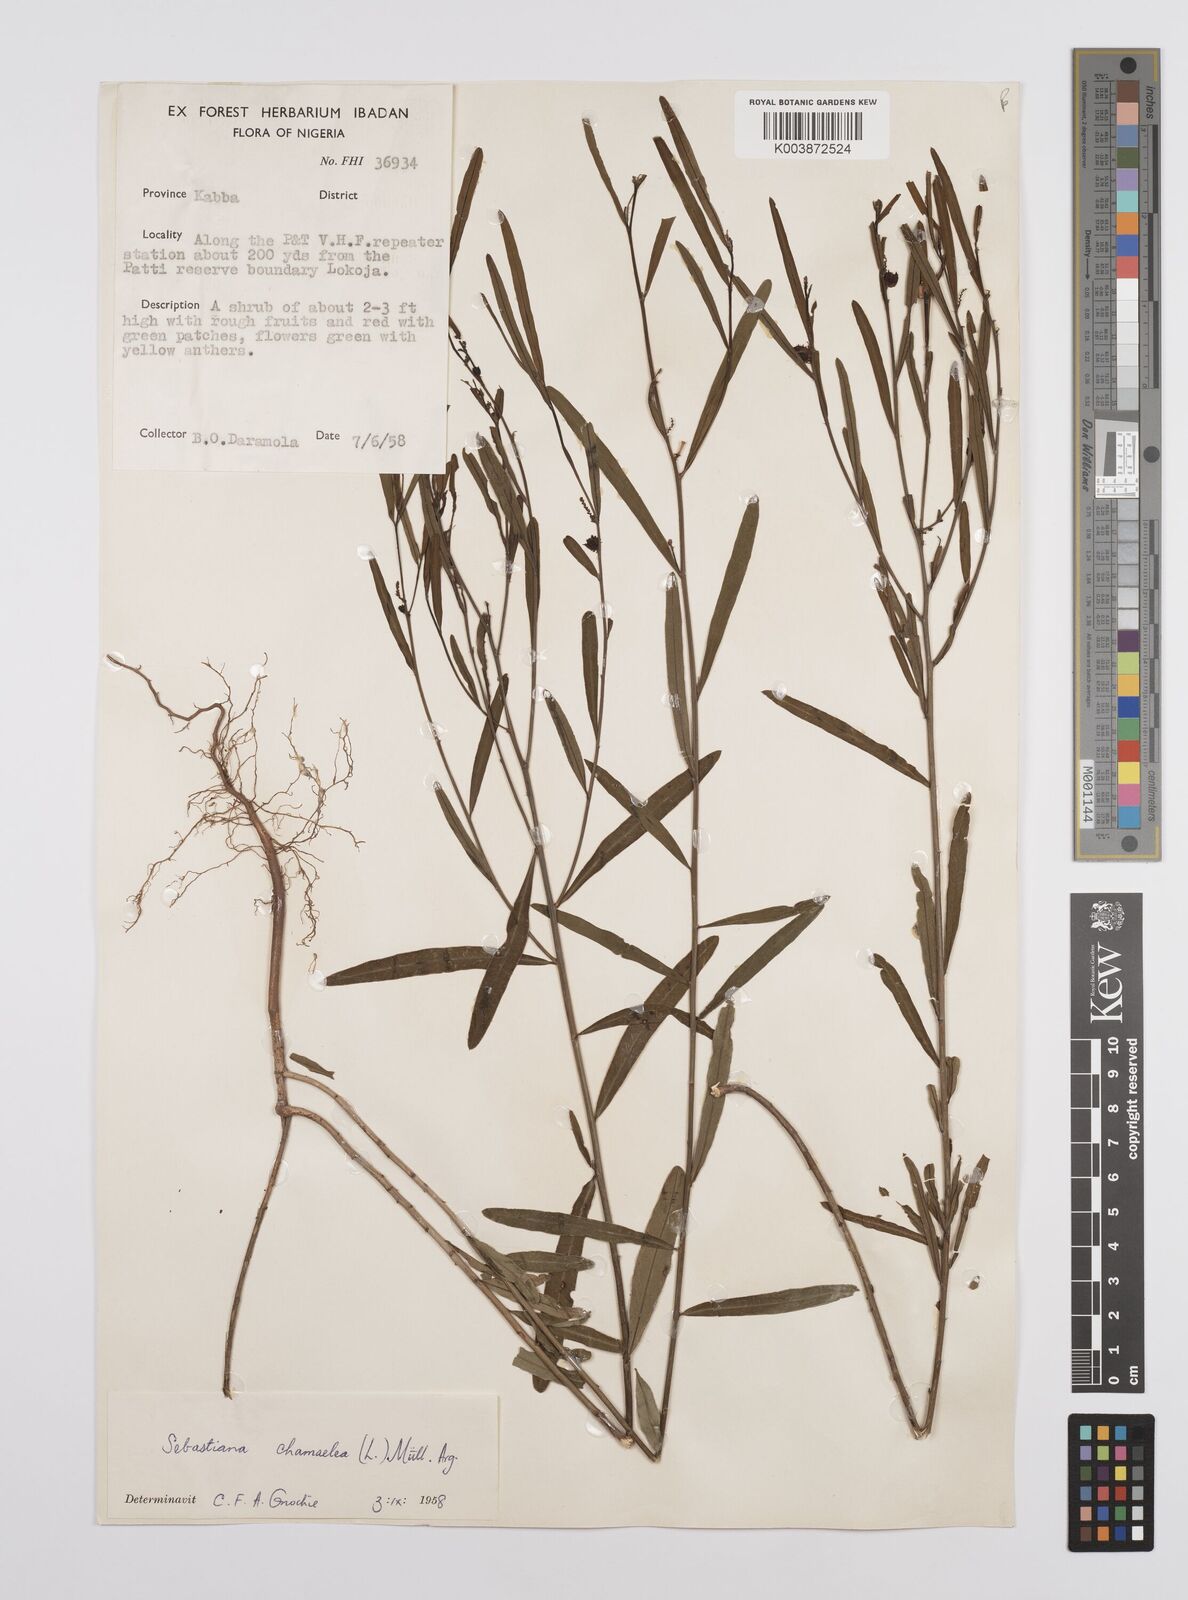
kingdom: Plantae
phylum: Tracheophyta
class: Magnoliopsida
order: Malpighiales
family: Euphorbiaceae
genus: Microstachys
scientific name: Microstachys chamaelea
